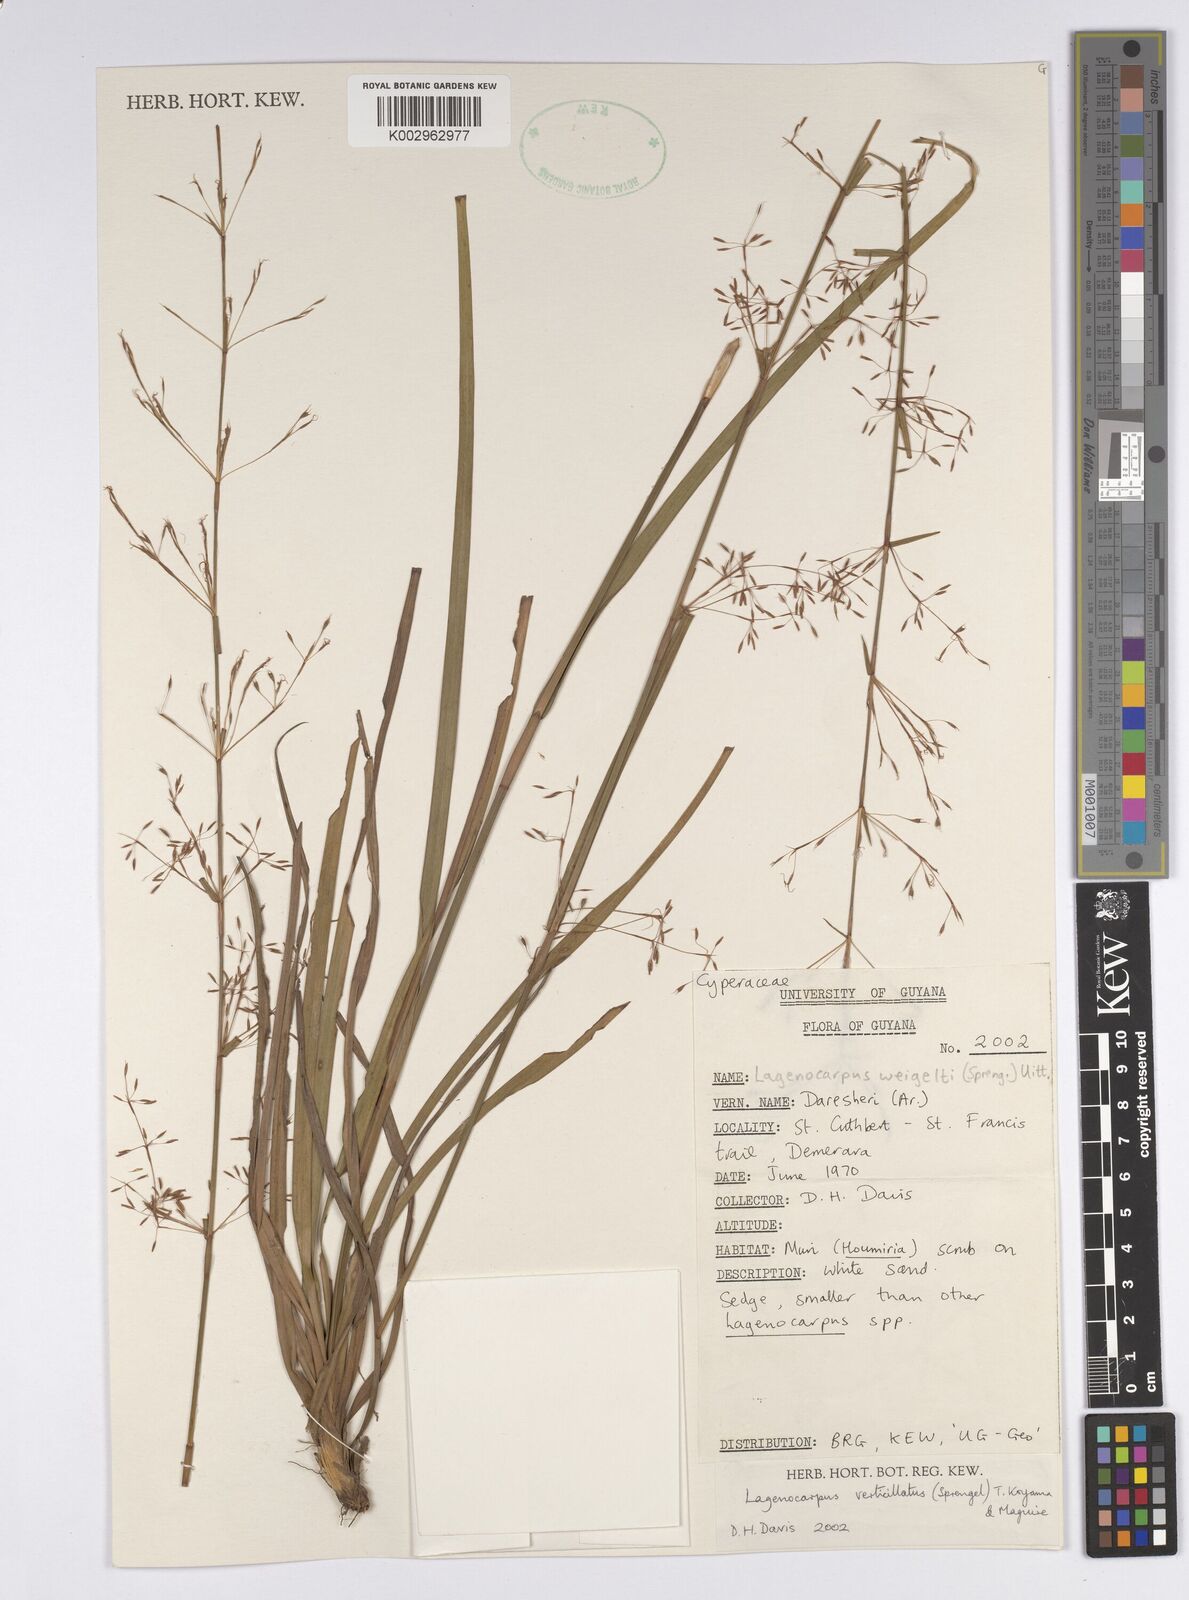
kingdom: Plantae
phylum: Tracheophyta
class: Liliopsida
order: Poales
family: Cyperaceae
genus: Cryptangium
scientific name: Cryptangium verticillatum
